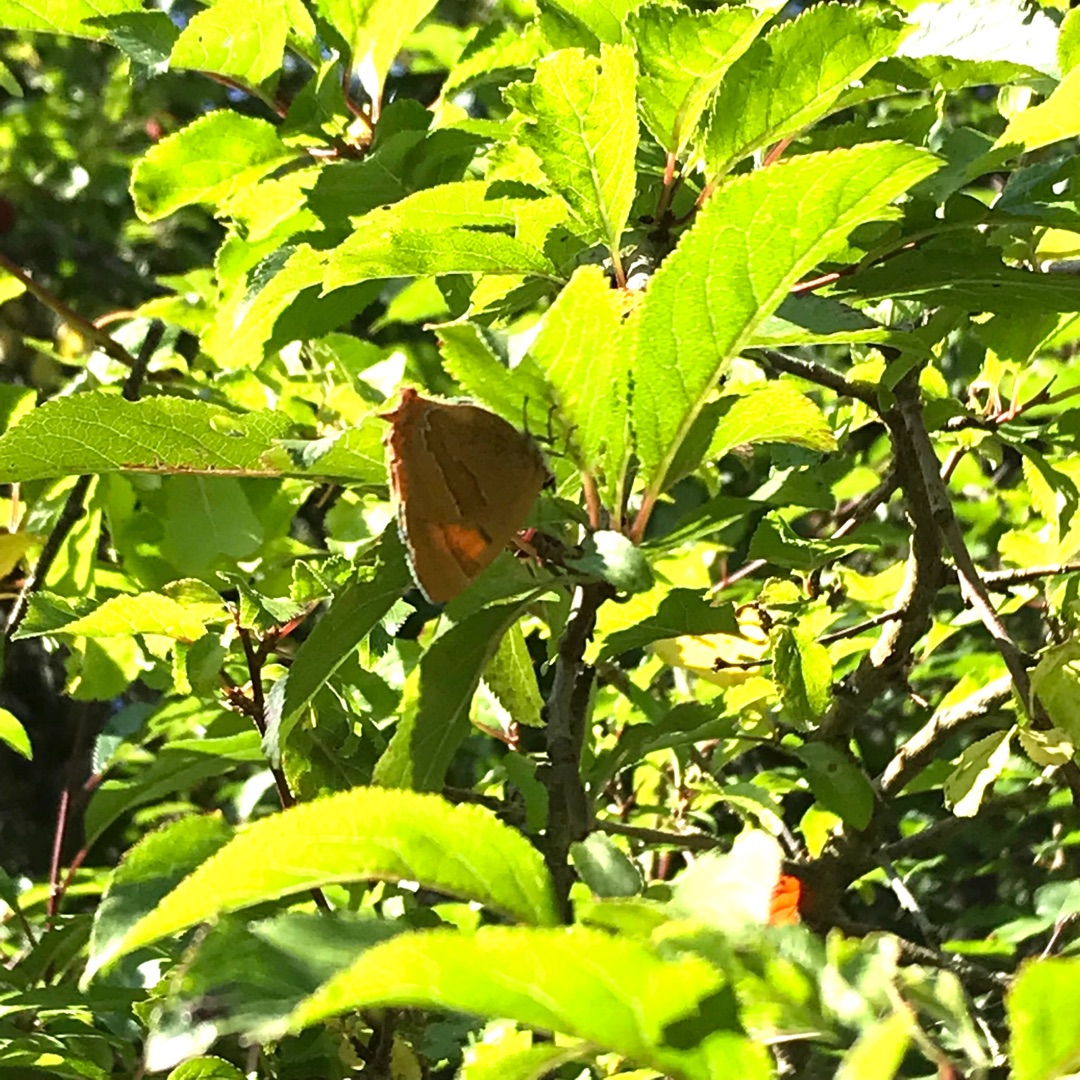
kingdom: Animalia
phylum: Arthropoda
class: Insecta
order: Lepidoptera
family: Lycaenidae
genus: Thecla
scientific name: Thecla betulae
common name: Guldhale
